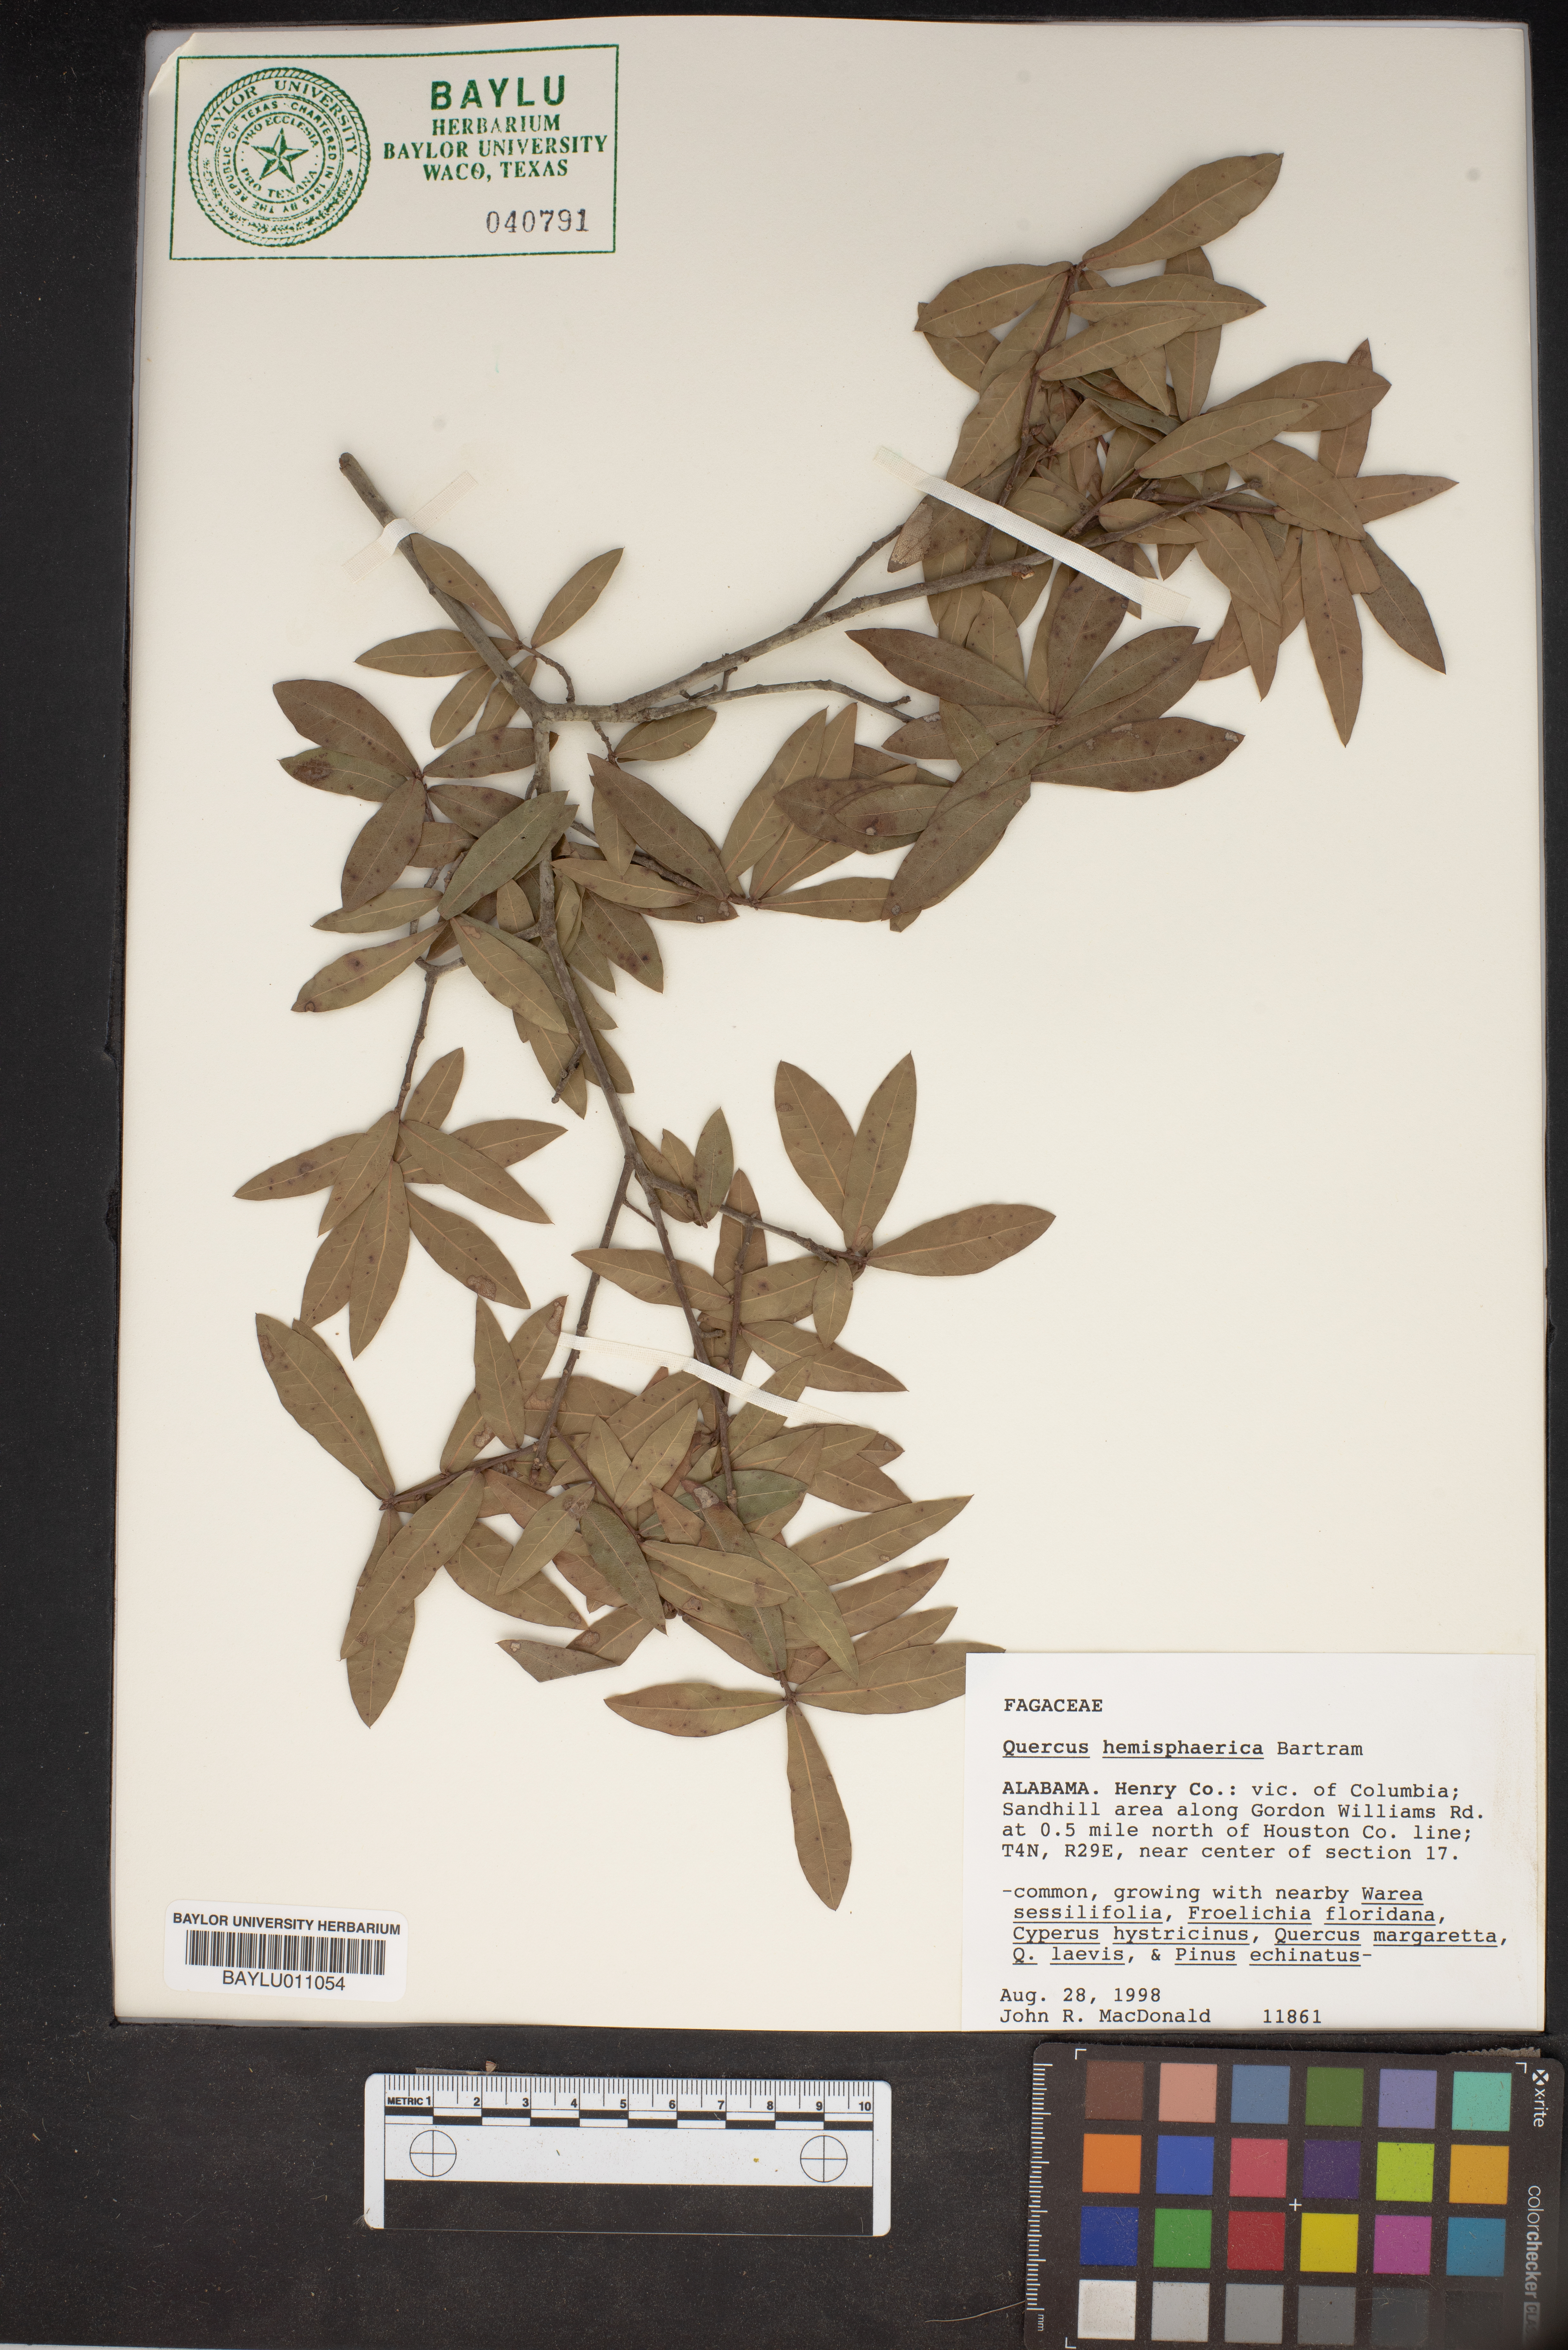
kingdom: Plantae
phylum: Tracheophyta
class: Magnoliopsida
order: Fagales
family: Fagaceae
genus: Quercus
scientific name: Quercus hemisphaerica
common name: Darlington oak
